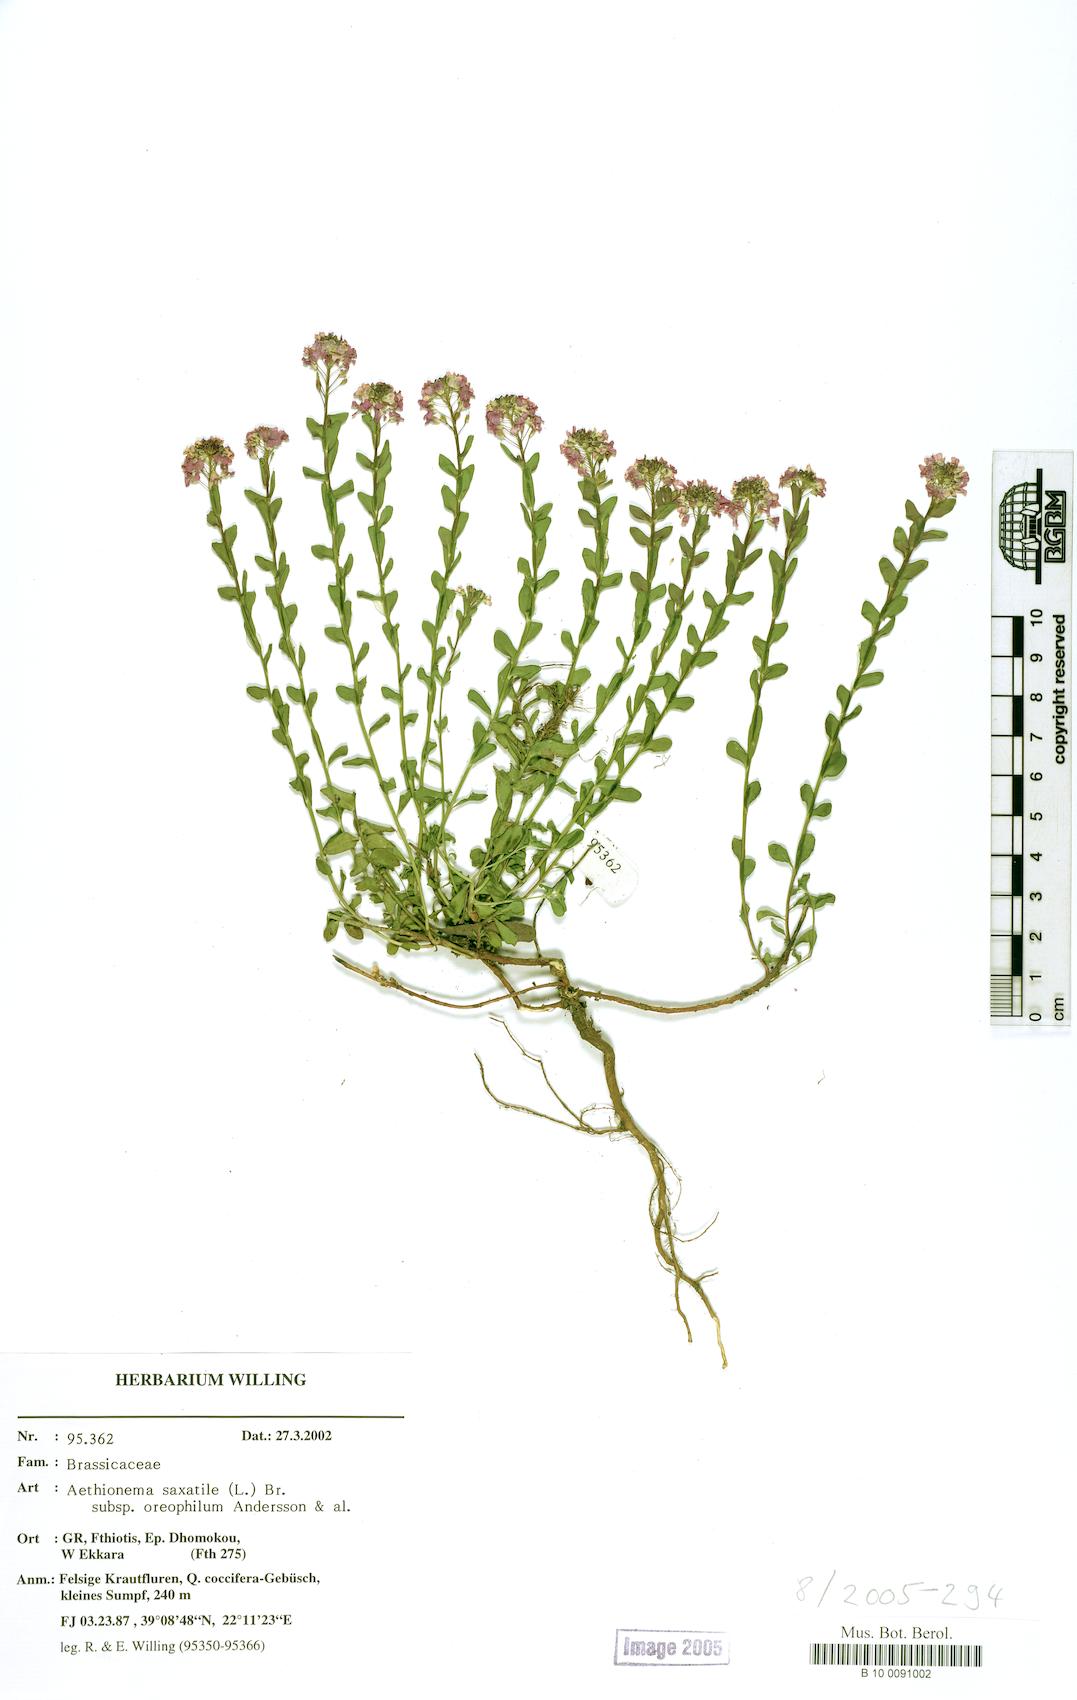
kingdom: Plantae
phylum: Tracheophyta
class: Magnoliopsida
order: Brassicales
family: Brassicaceae
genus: Aethionema
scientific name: Aethionema saxatile
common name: Burnt candytuft
